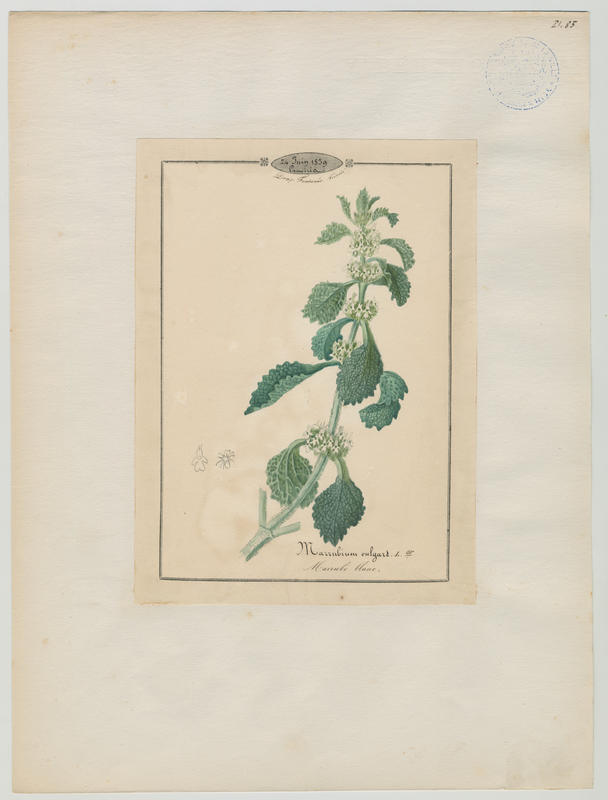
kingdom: Plantae
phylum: Tracheophyta
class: Magnoliopsida
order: Lamiales
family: Lamiaceae
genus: Marrubium
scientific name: Marrubium vulgare
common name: Horehound
